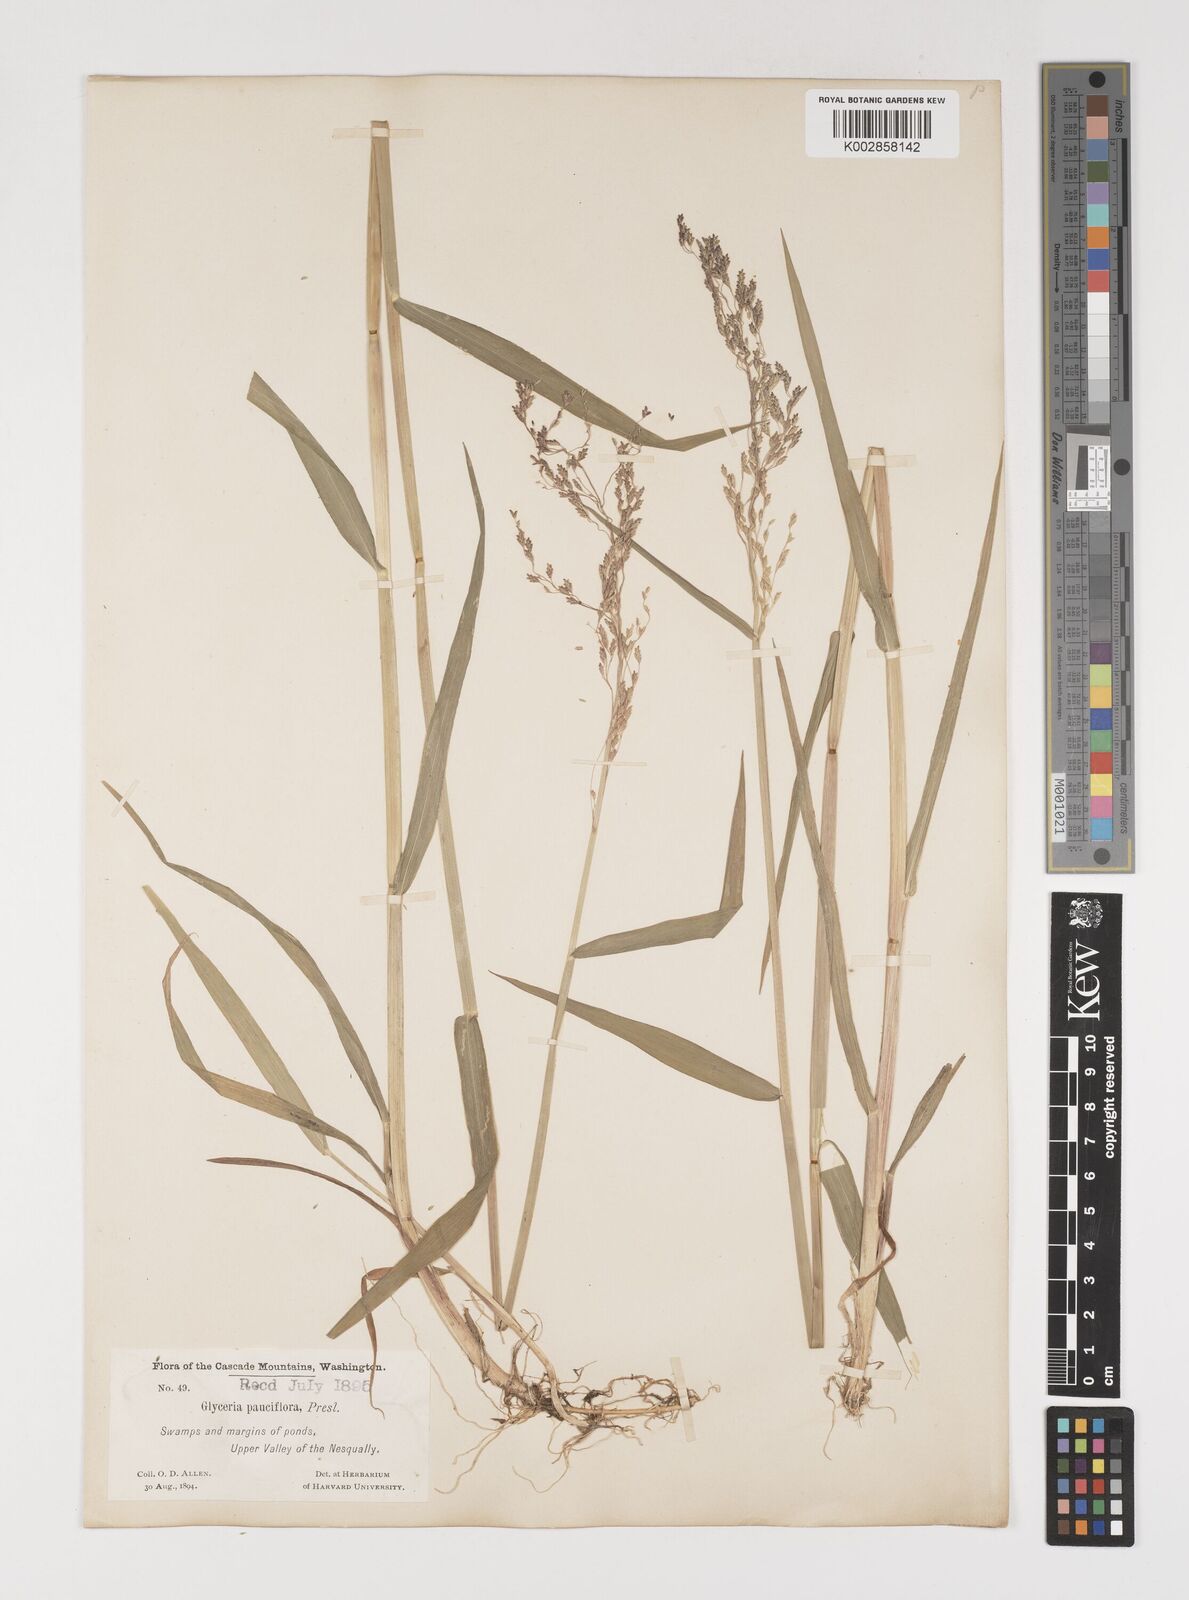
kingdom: Plantae
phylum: Tracheophyta
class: Liliopsida
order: Poales
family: Poaceae
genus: Torreyochloa
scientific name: Torreyochloa pallida
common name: Pale false mannagrass
